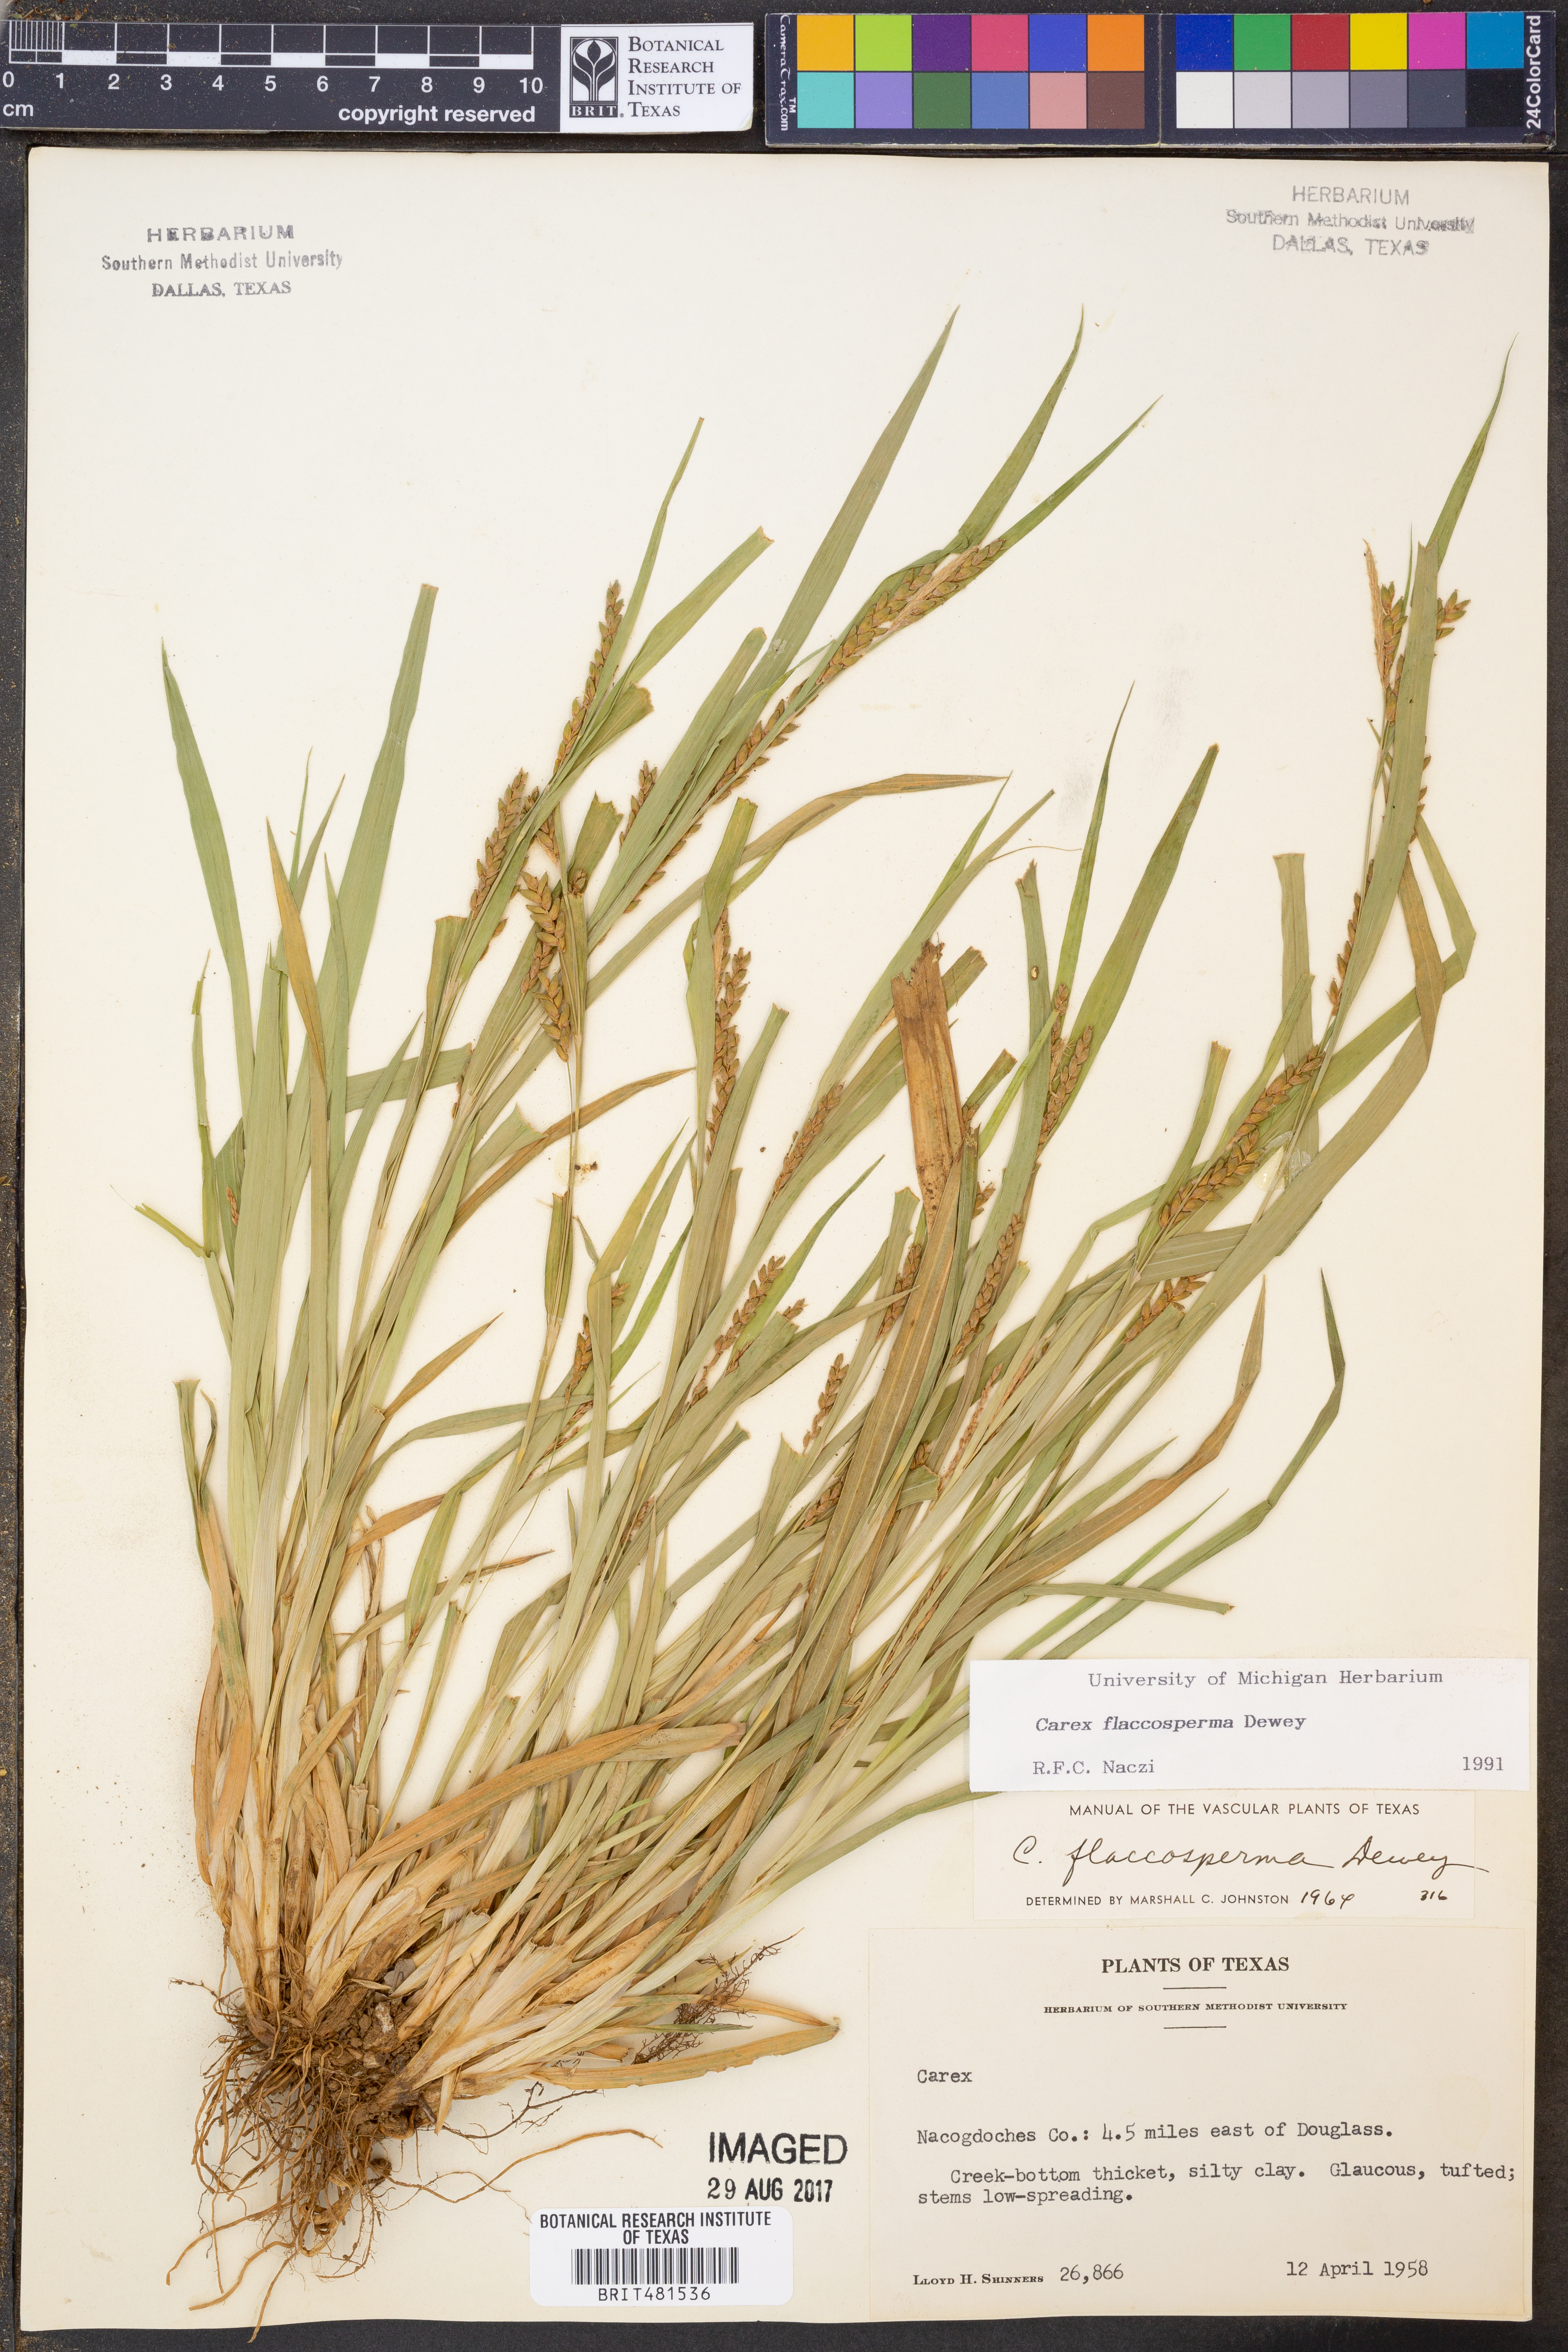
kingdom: Plantae
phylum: Tracheophyta
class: Liliopsida
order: Poales
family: Cyperaceae
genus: Carex
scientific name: Carex flaccosperma
